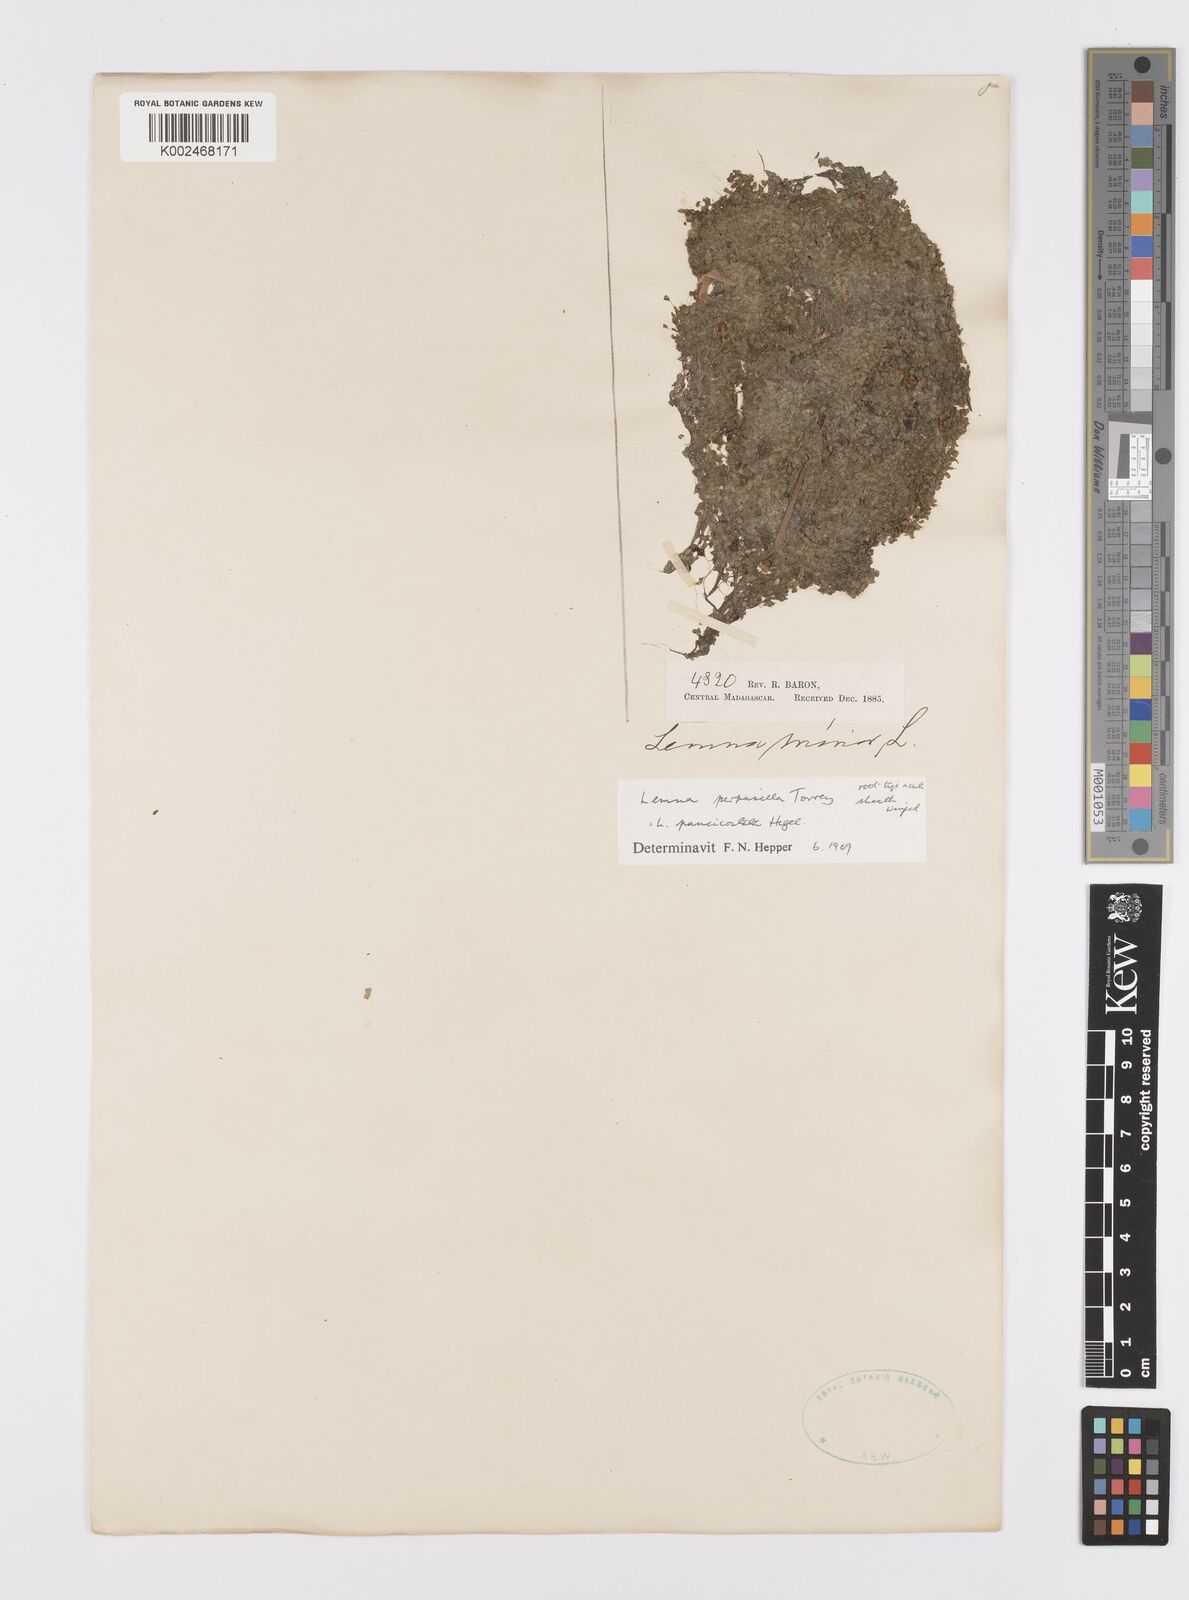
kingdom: Plantae
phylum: Tracheophyta
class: Liliopsida
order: Alismatales
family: Araceae
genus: Lemna
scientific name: Lemna perpusilla
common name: Duckweed
